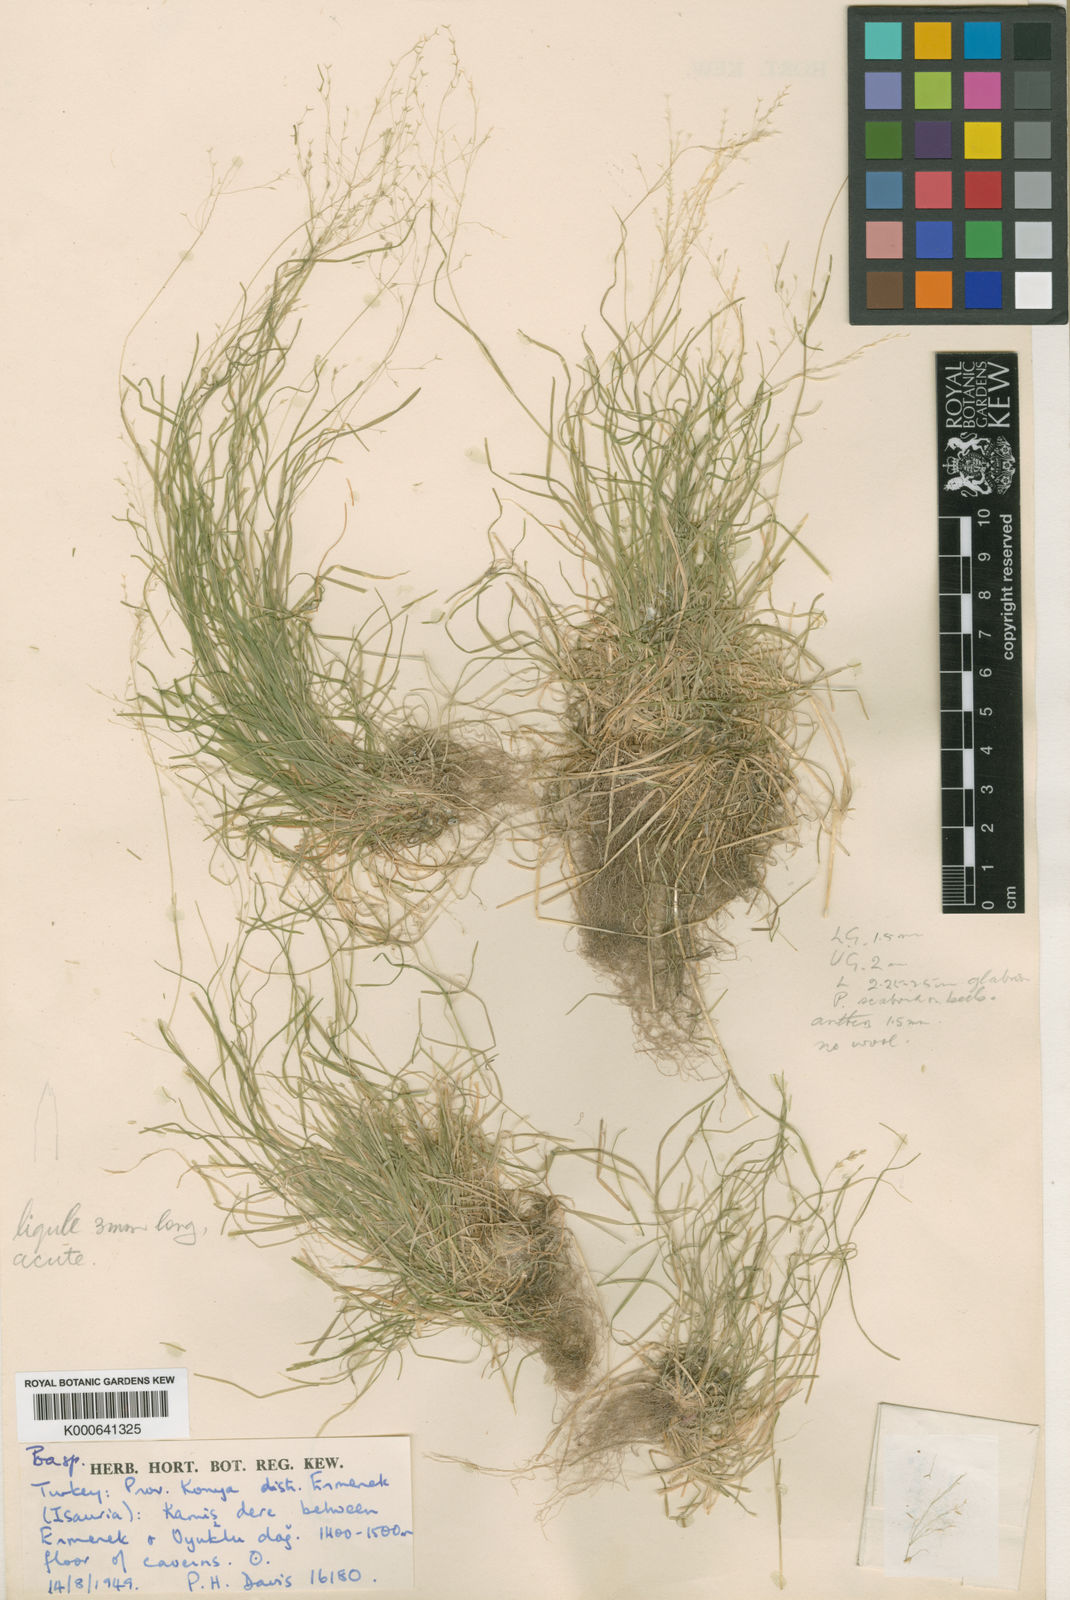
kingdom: Plantae
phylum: Tracheophyta
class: Liliopsida
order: Poales
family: Poaceae
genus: Poa
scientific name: Poa speluncarum
